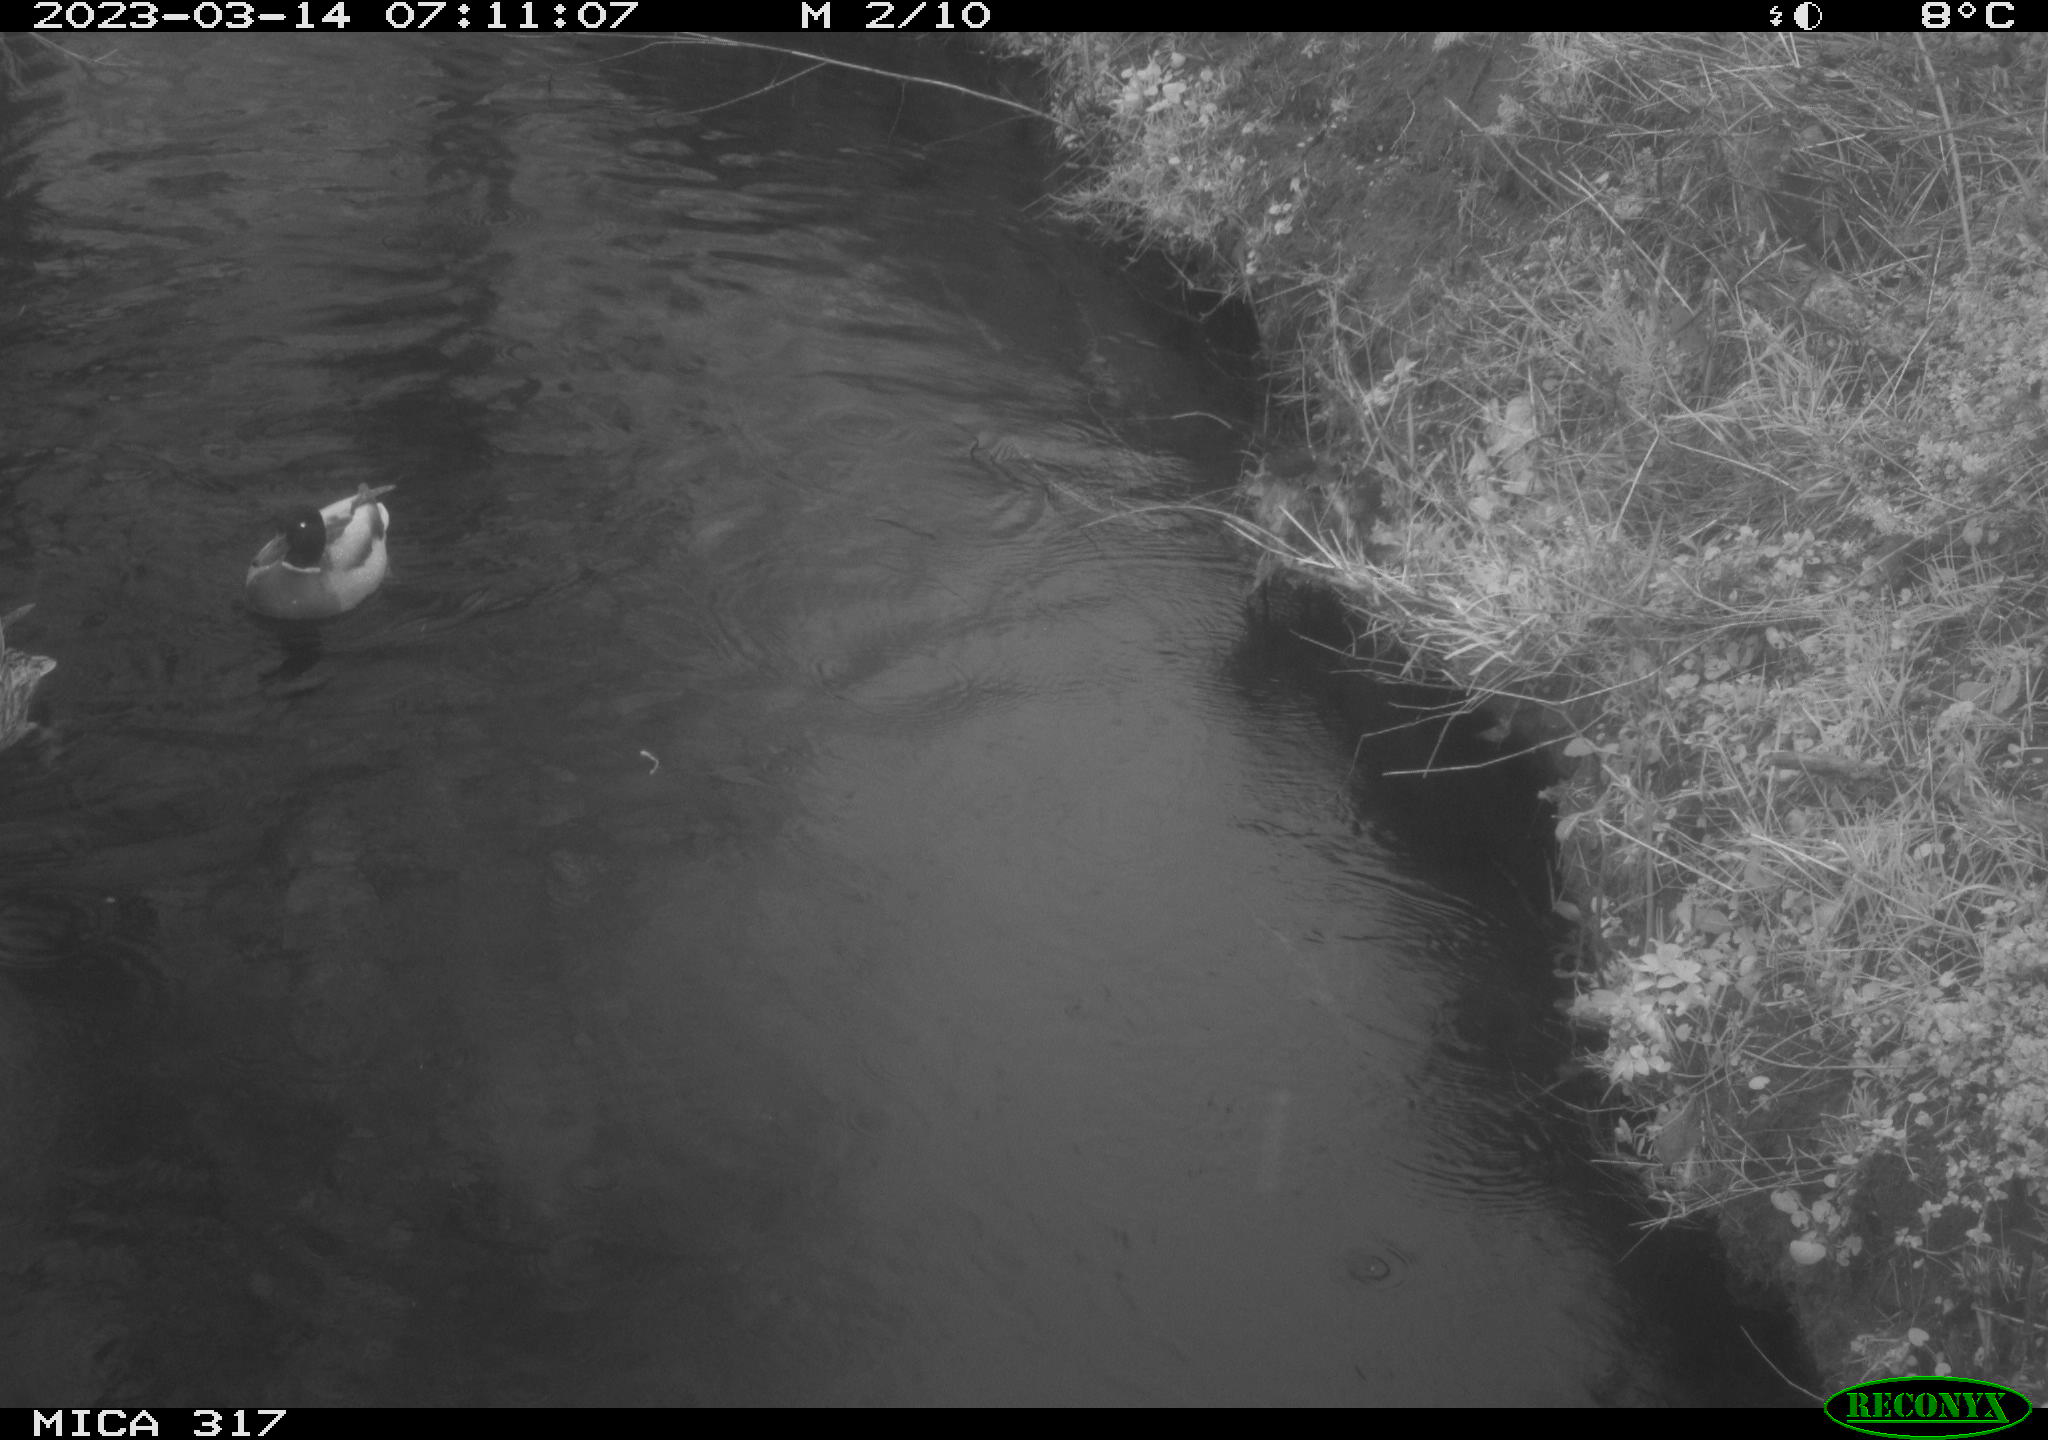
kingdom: Animalia
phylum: Chordata
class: Aves
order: Anseriformes
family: Anatidae
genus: Anas
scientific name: Anas
